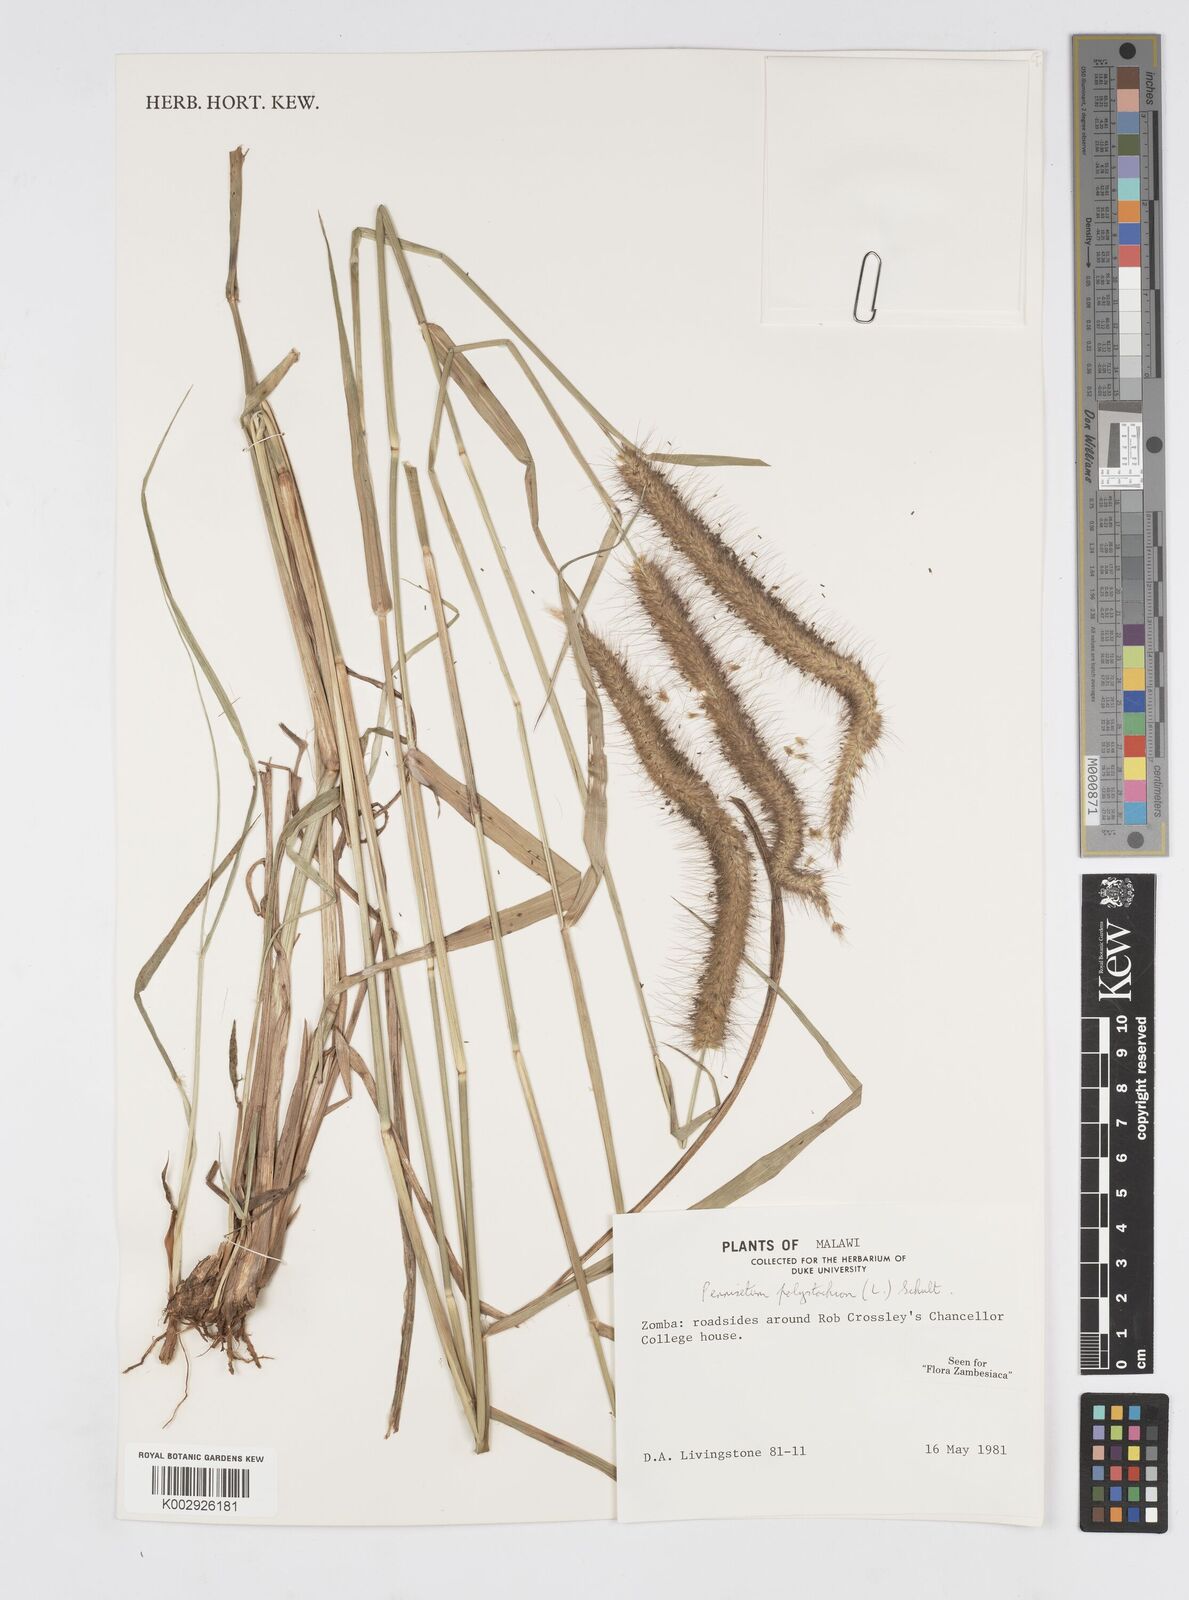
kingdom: Plantae
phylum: Tracheophyta
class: Liliopsida
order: Poales
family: Poaceae
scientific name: Poaceae
